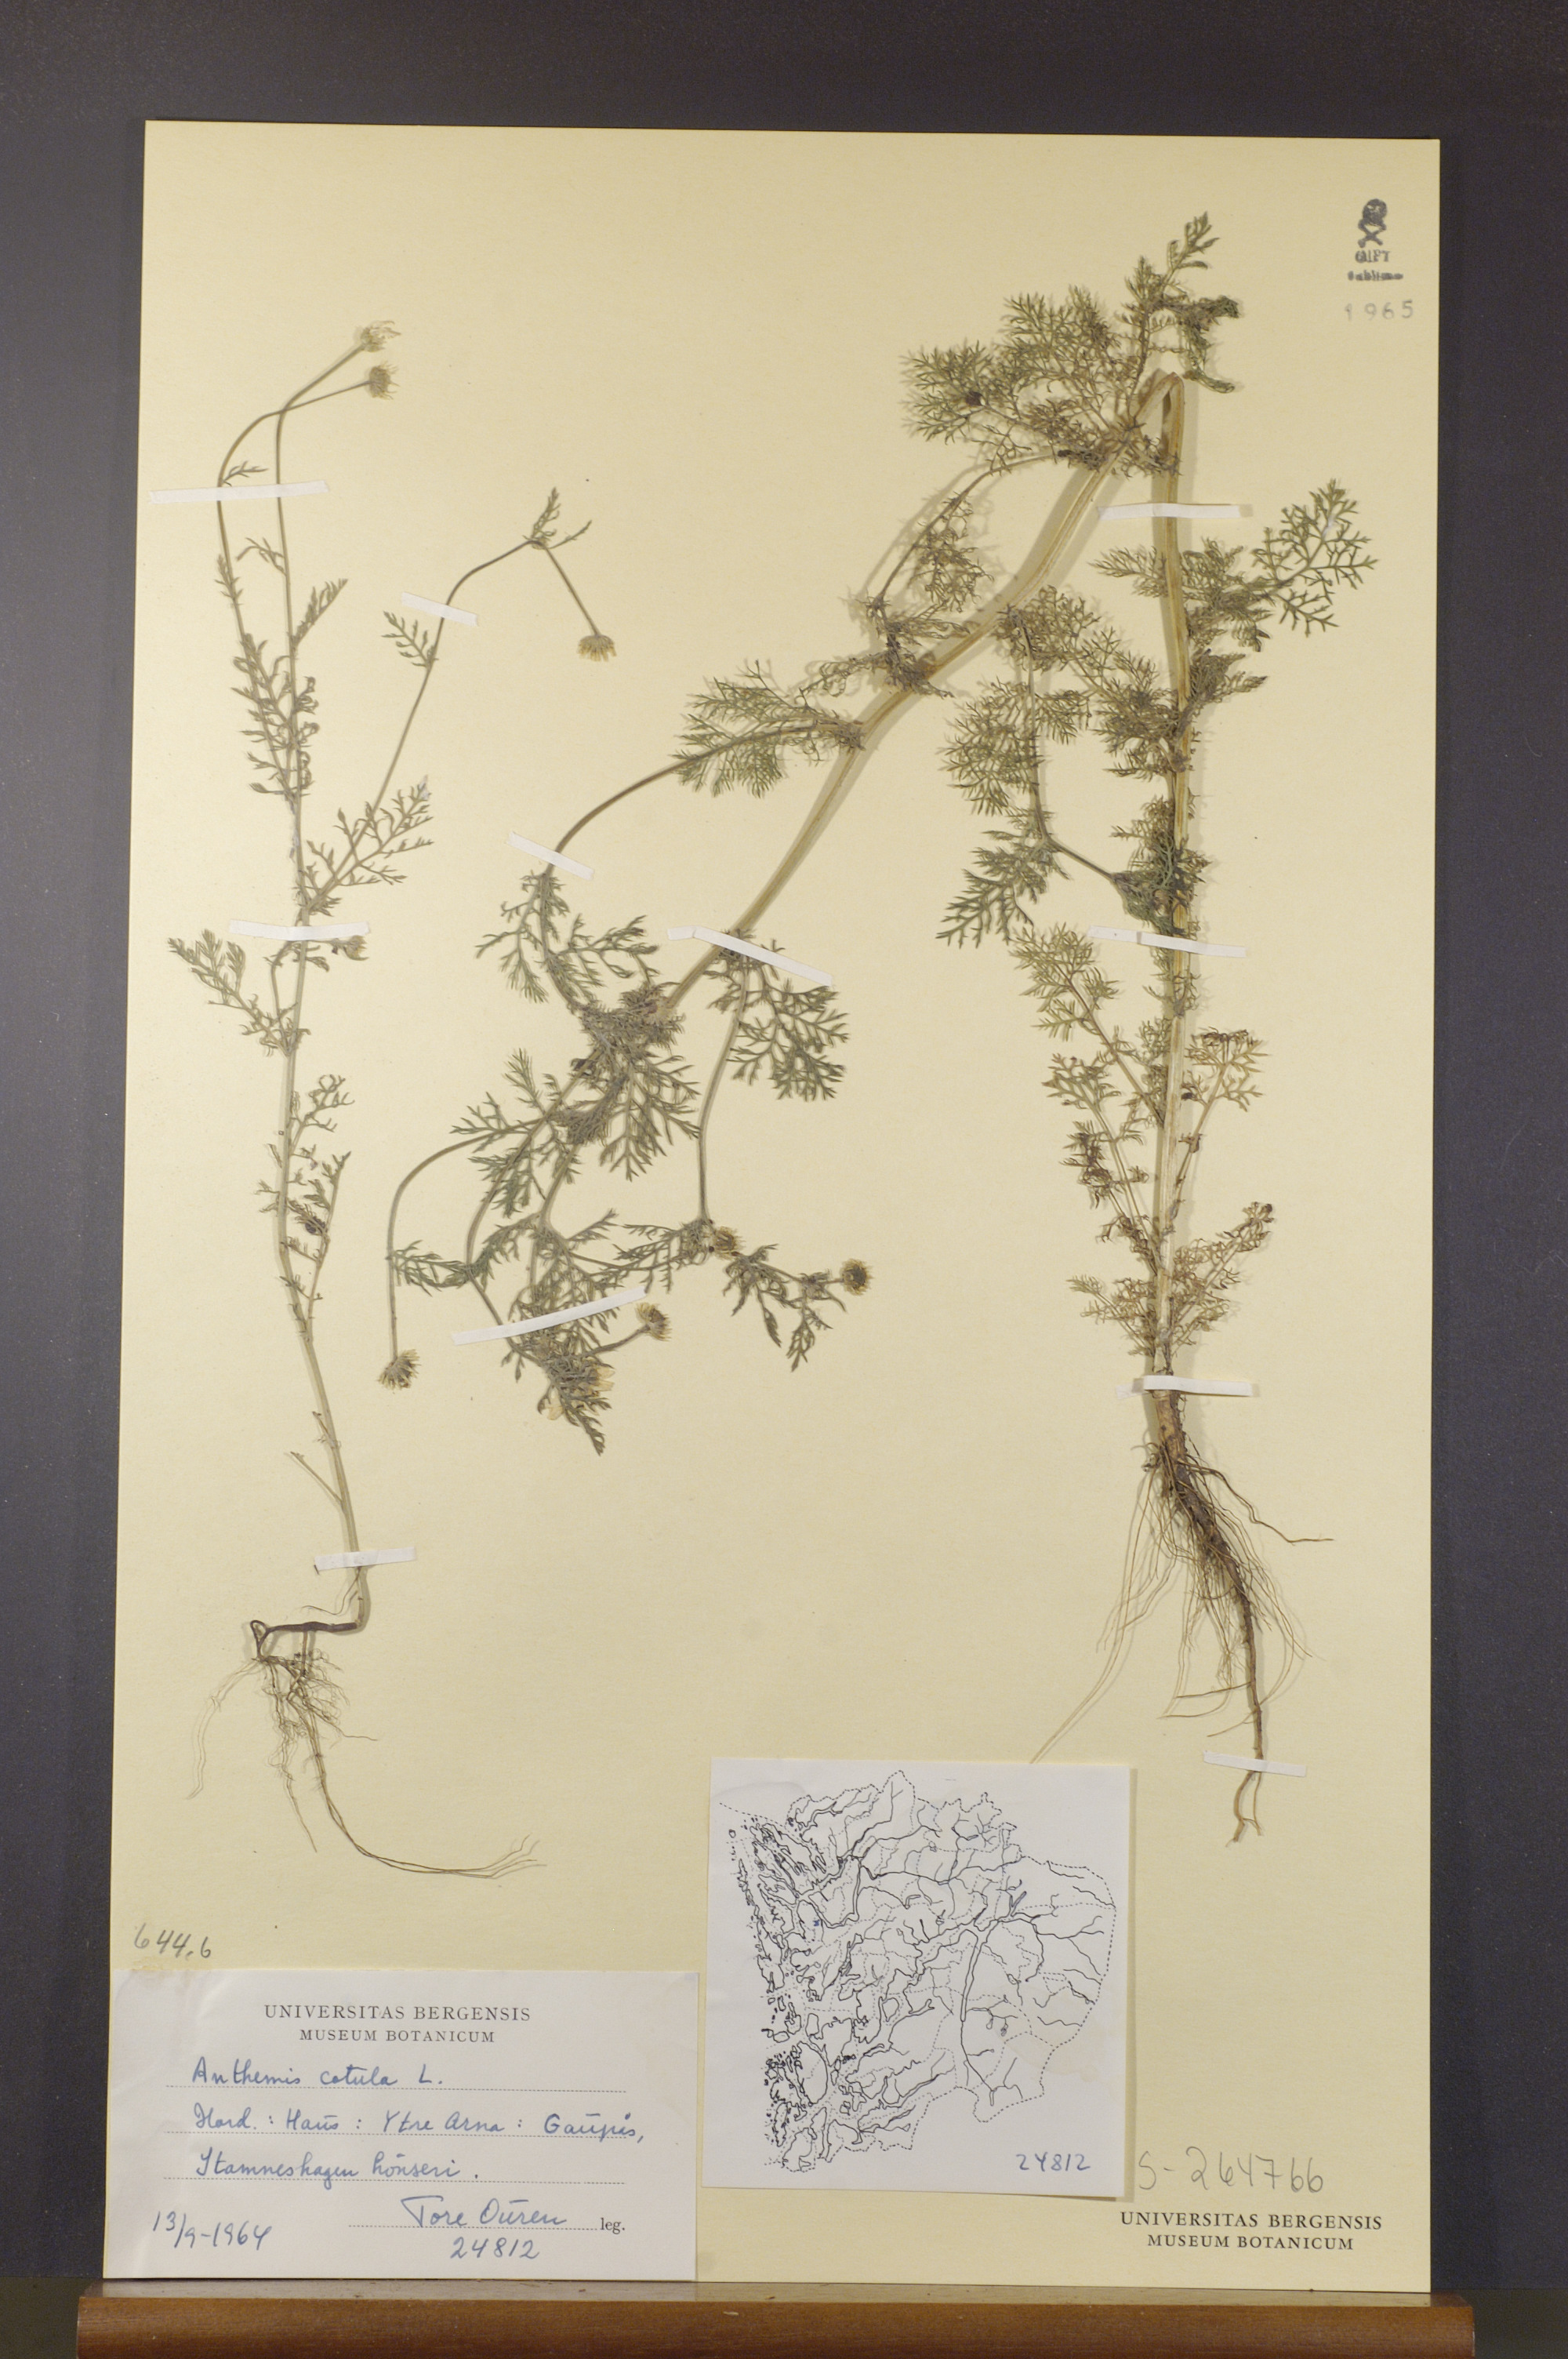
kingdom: Plantae
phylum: Tracheophyta
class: Magnoliopsida
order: Asterales
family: Asteraceae
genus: Anthemis
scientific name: Anthemis cotula
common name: Stinking chamomile
